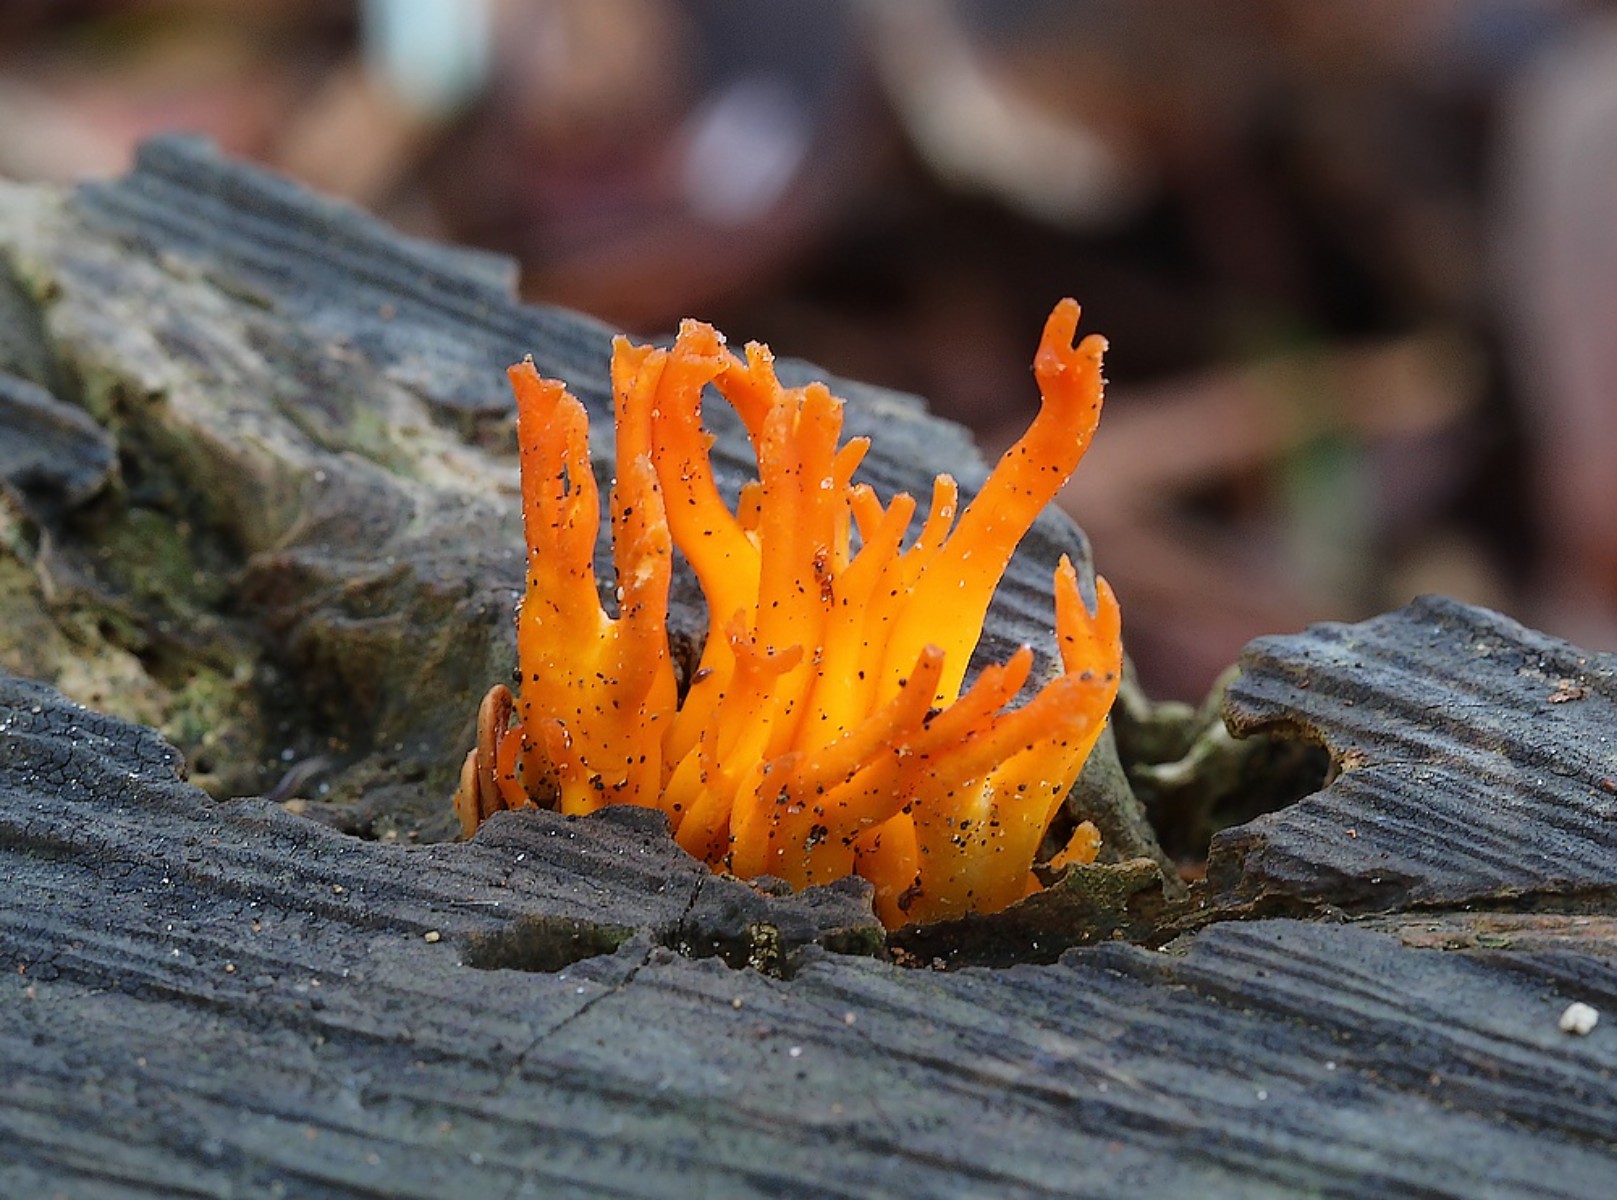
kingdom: Fungi
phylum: Basidiomycota
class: Dacrymycetes
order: Dacrymycetales
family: Dacrymycetaceae
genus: Calocera
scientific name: Calocera viscosa
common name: almindelig guldgaffel
